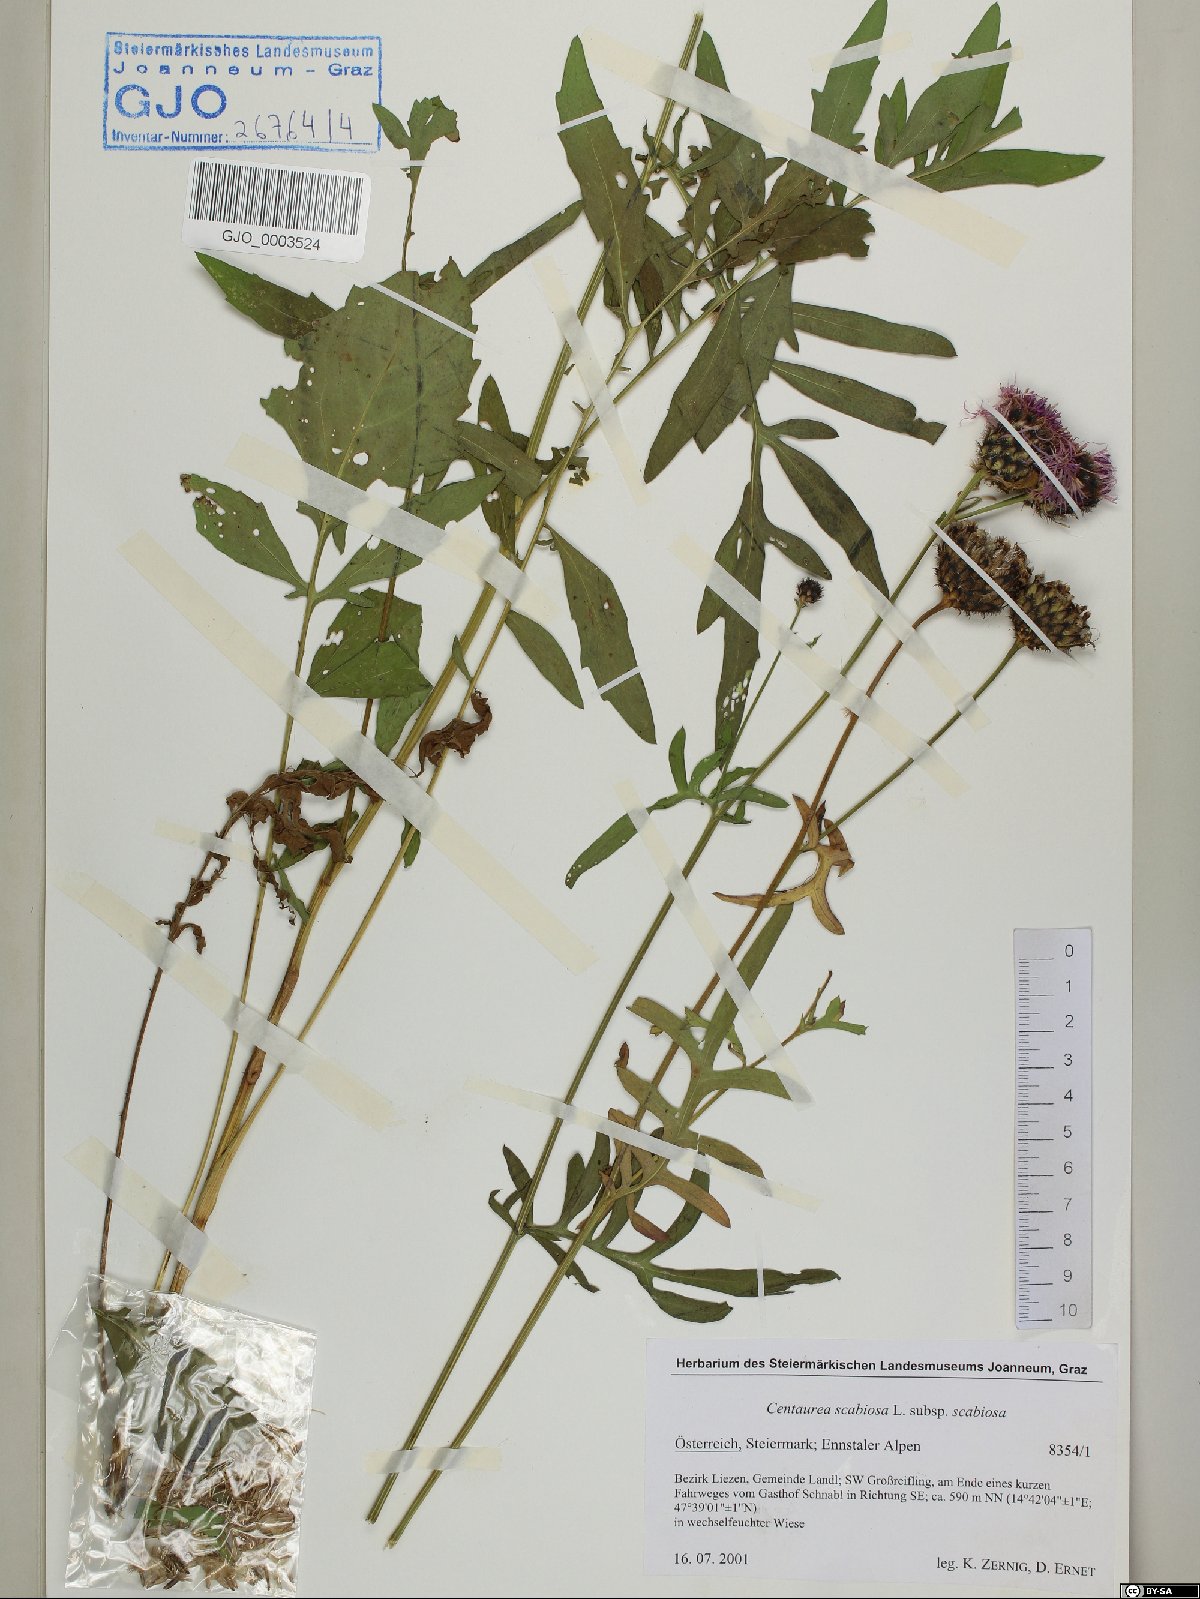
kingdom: Plantae
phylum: Tracheophyta
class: Magnoliopsida
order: Asterales
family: Asteraceae
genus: Centaurea
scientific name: Centaurea scabiosa
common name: Greater knapweed
